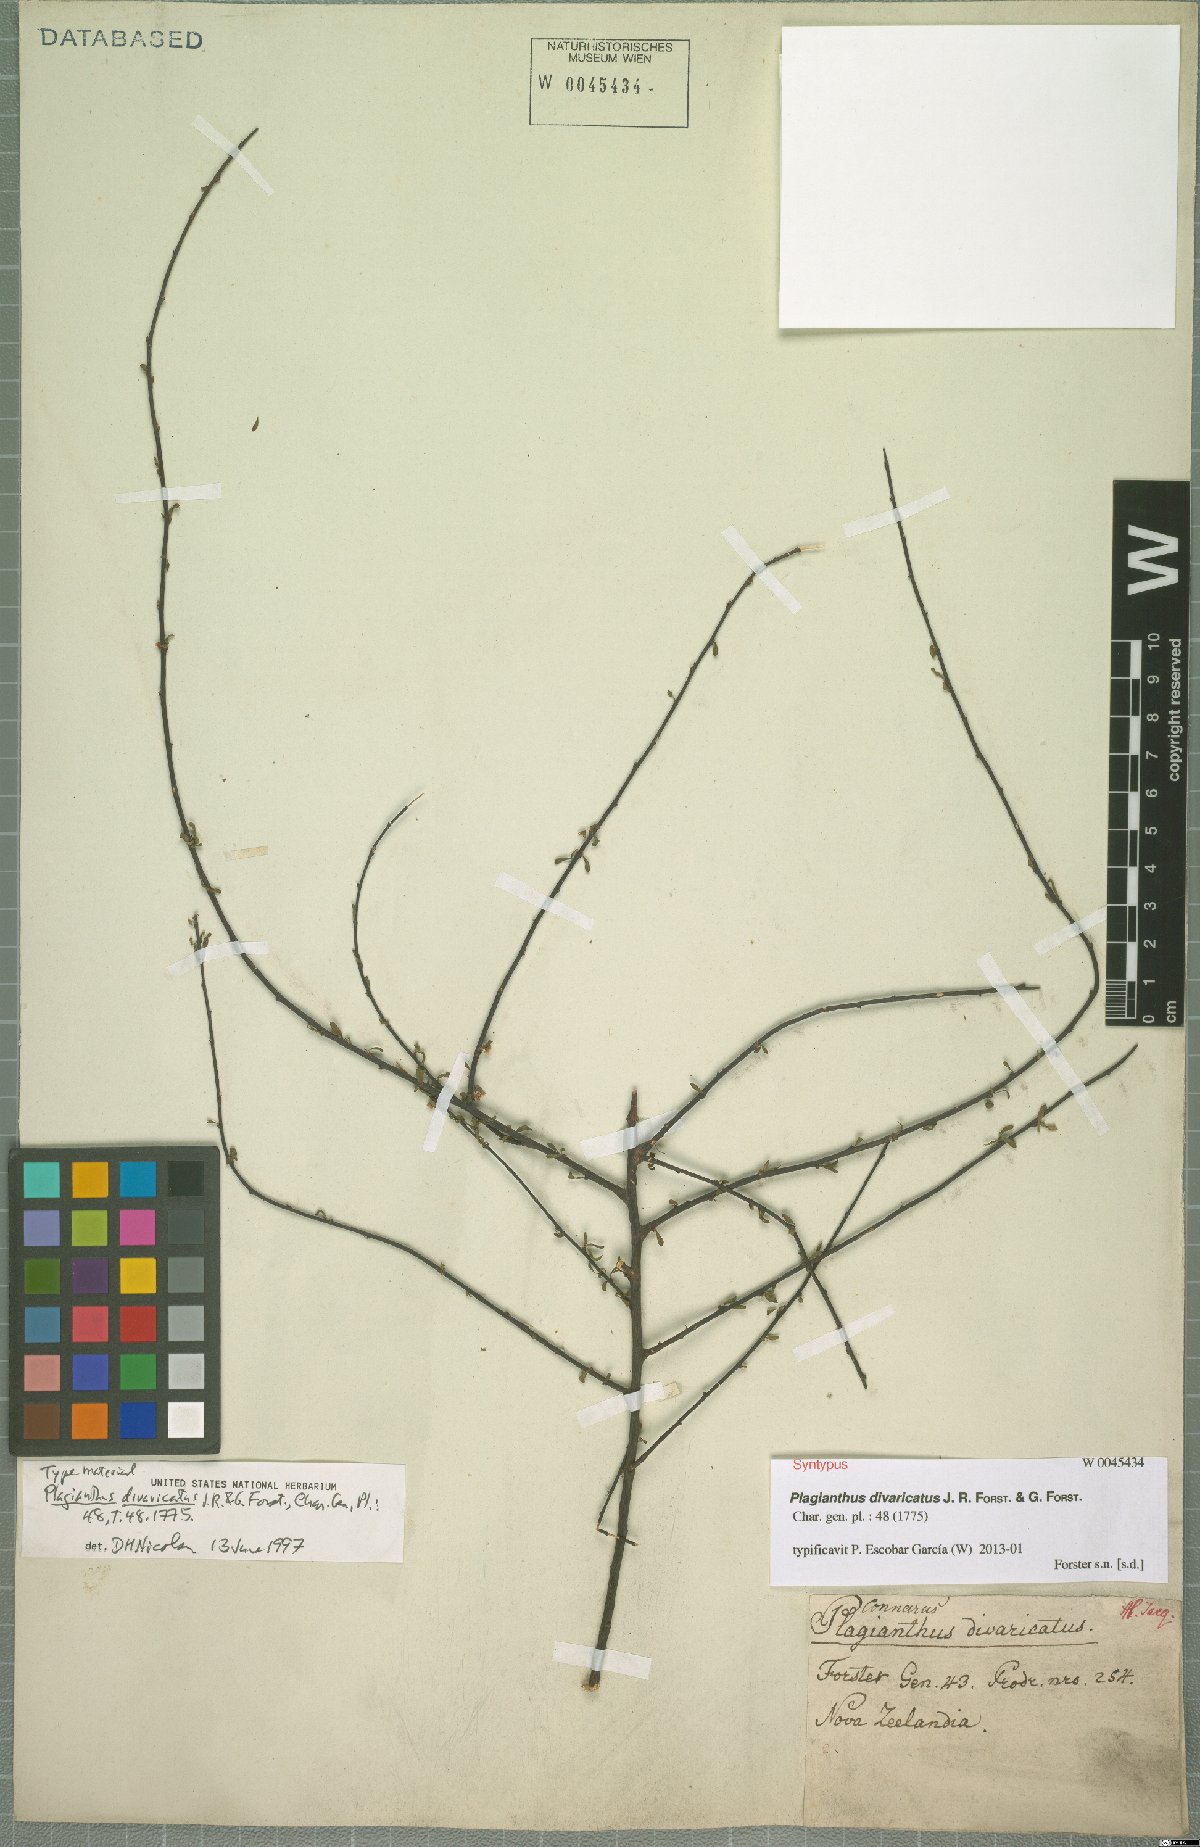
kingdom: Plantae
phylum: Tracheophyta
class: Magnoliopsida
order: Malvales
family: Malvaceae
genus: Plagianthus
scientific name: Plagianthus divaricatus
